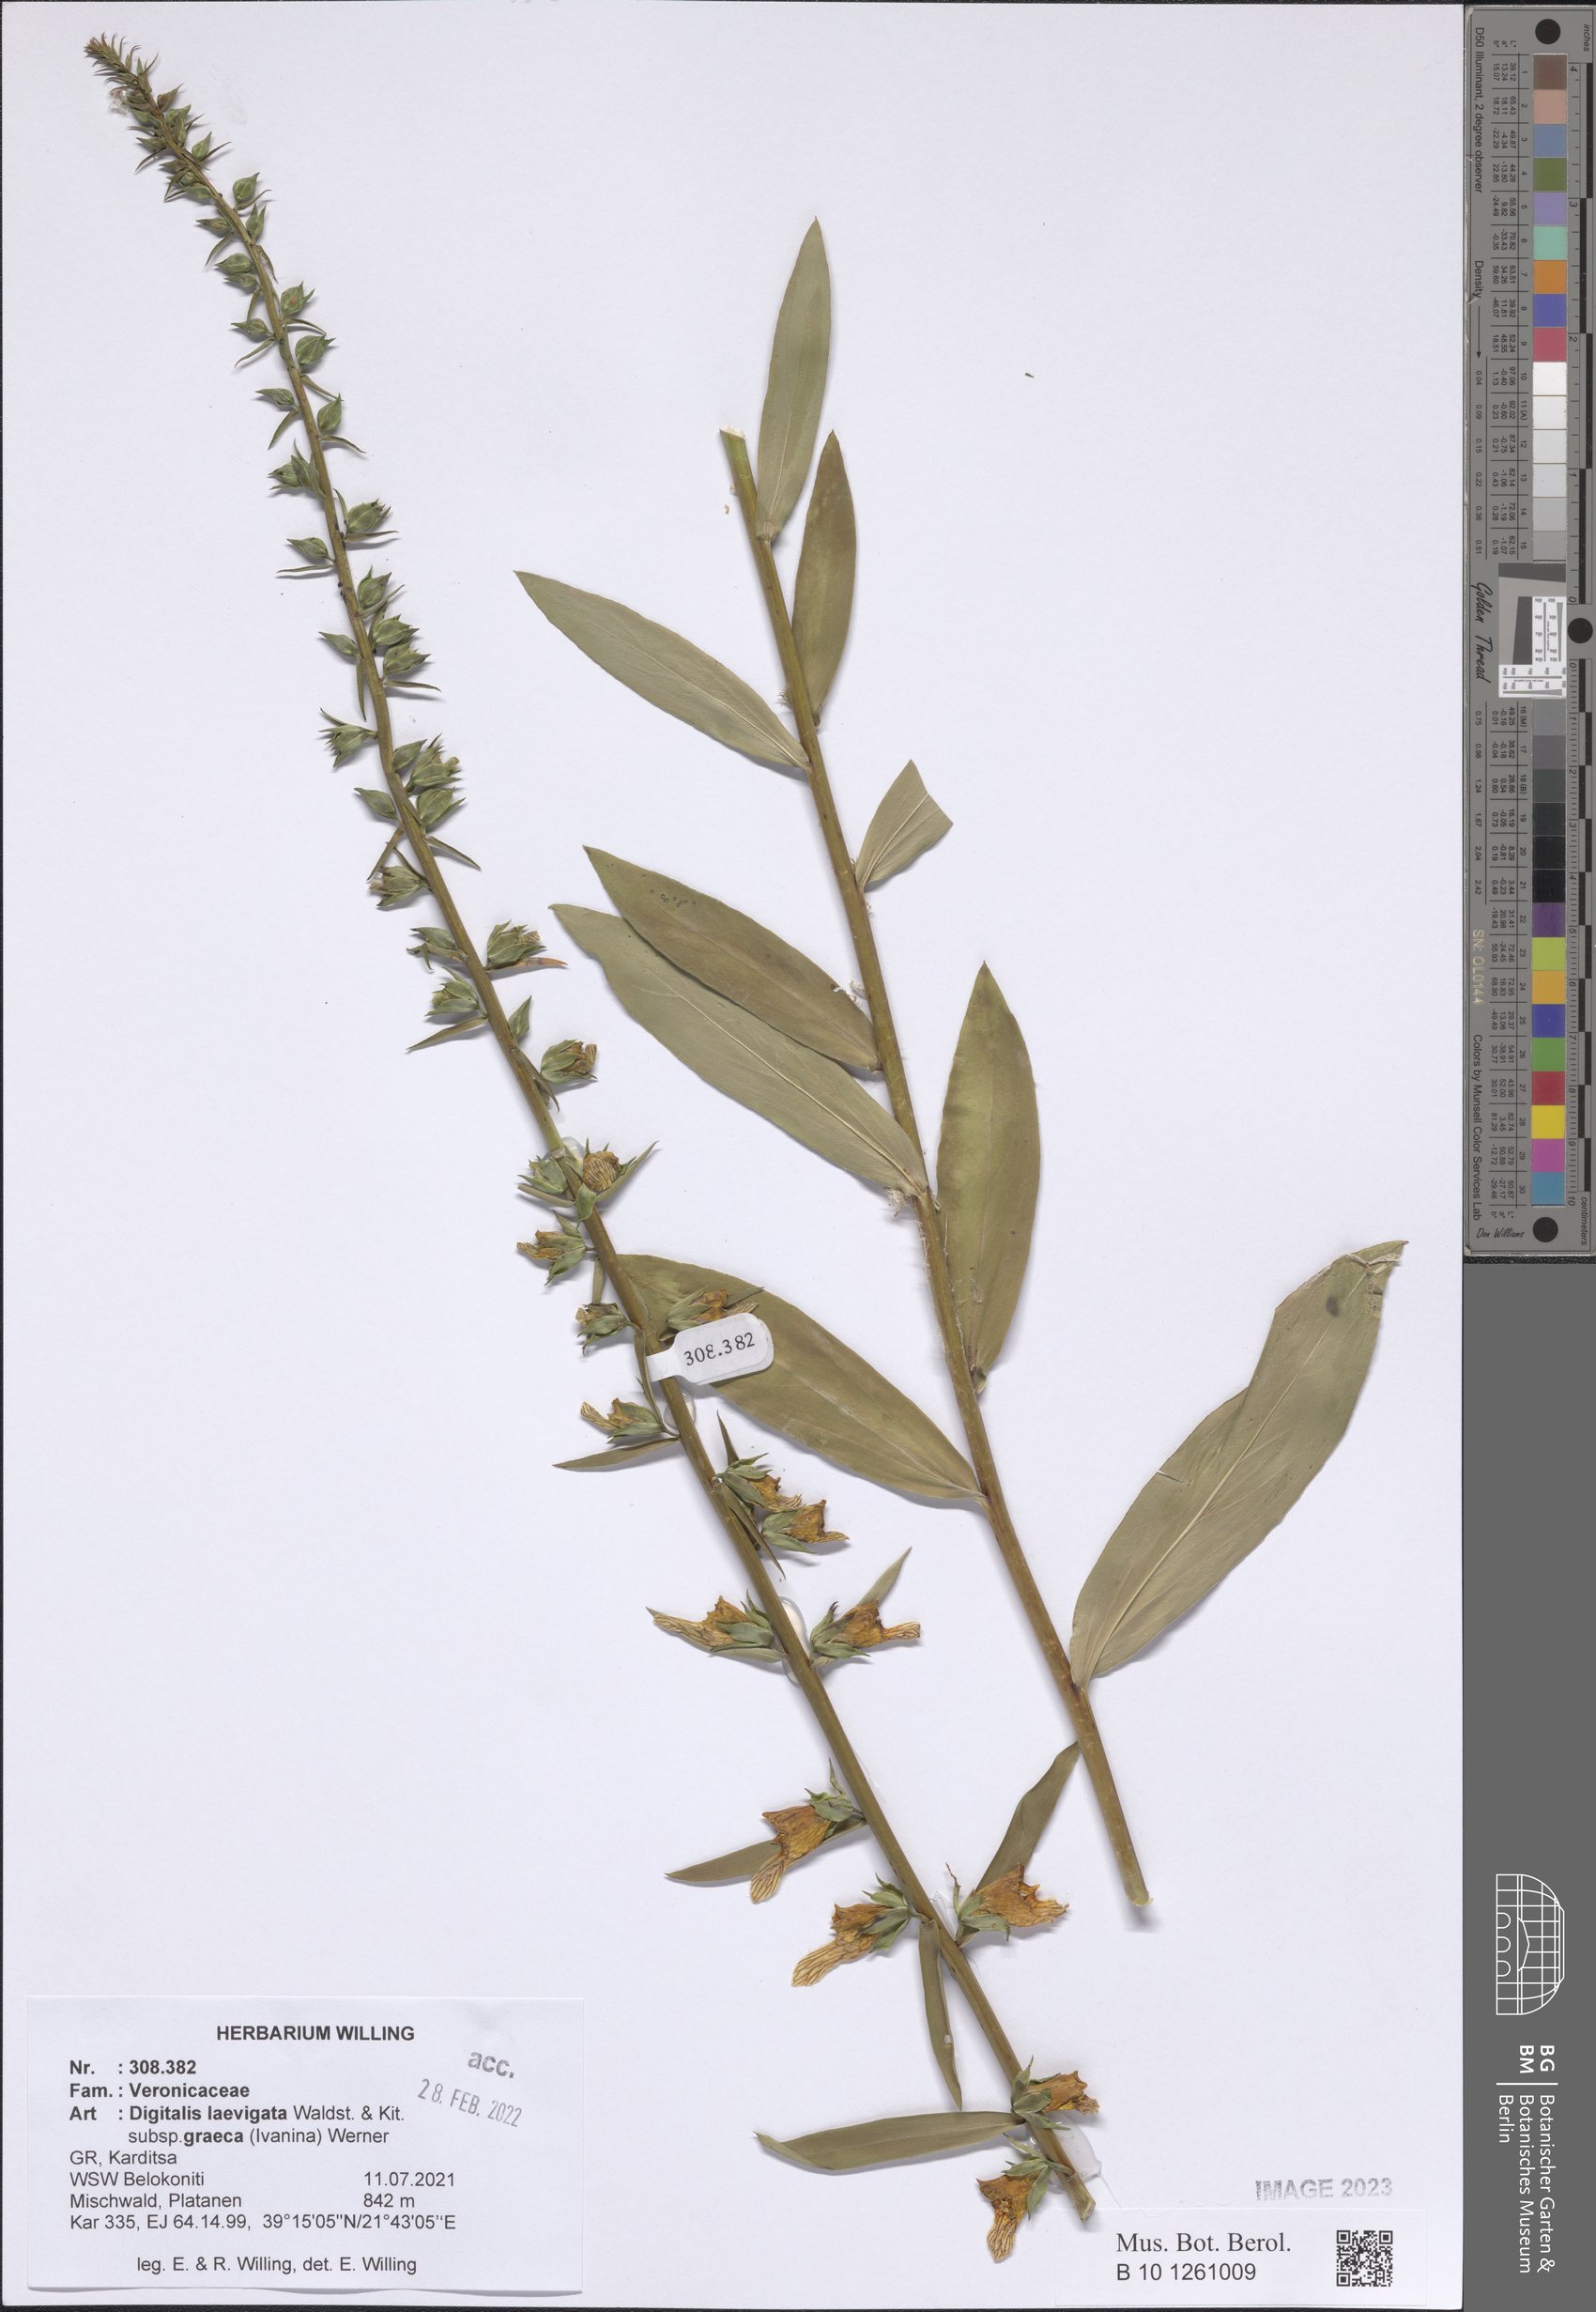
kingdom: Plantae
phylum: Tracheophyta
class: Magnoliopsida
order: Lamiales
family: Plantaginaceae
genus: Digitalis
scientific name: Digitalis laevigata
